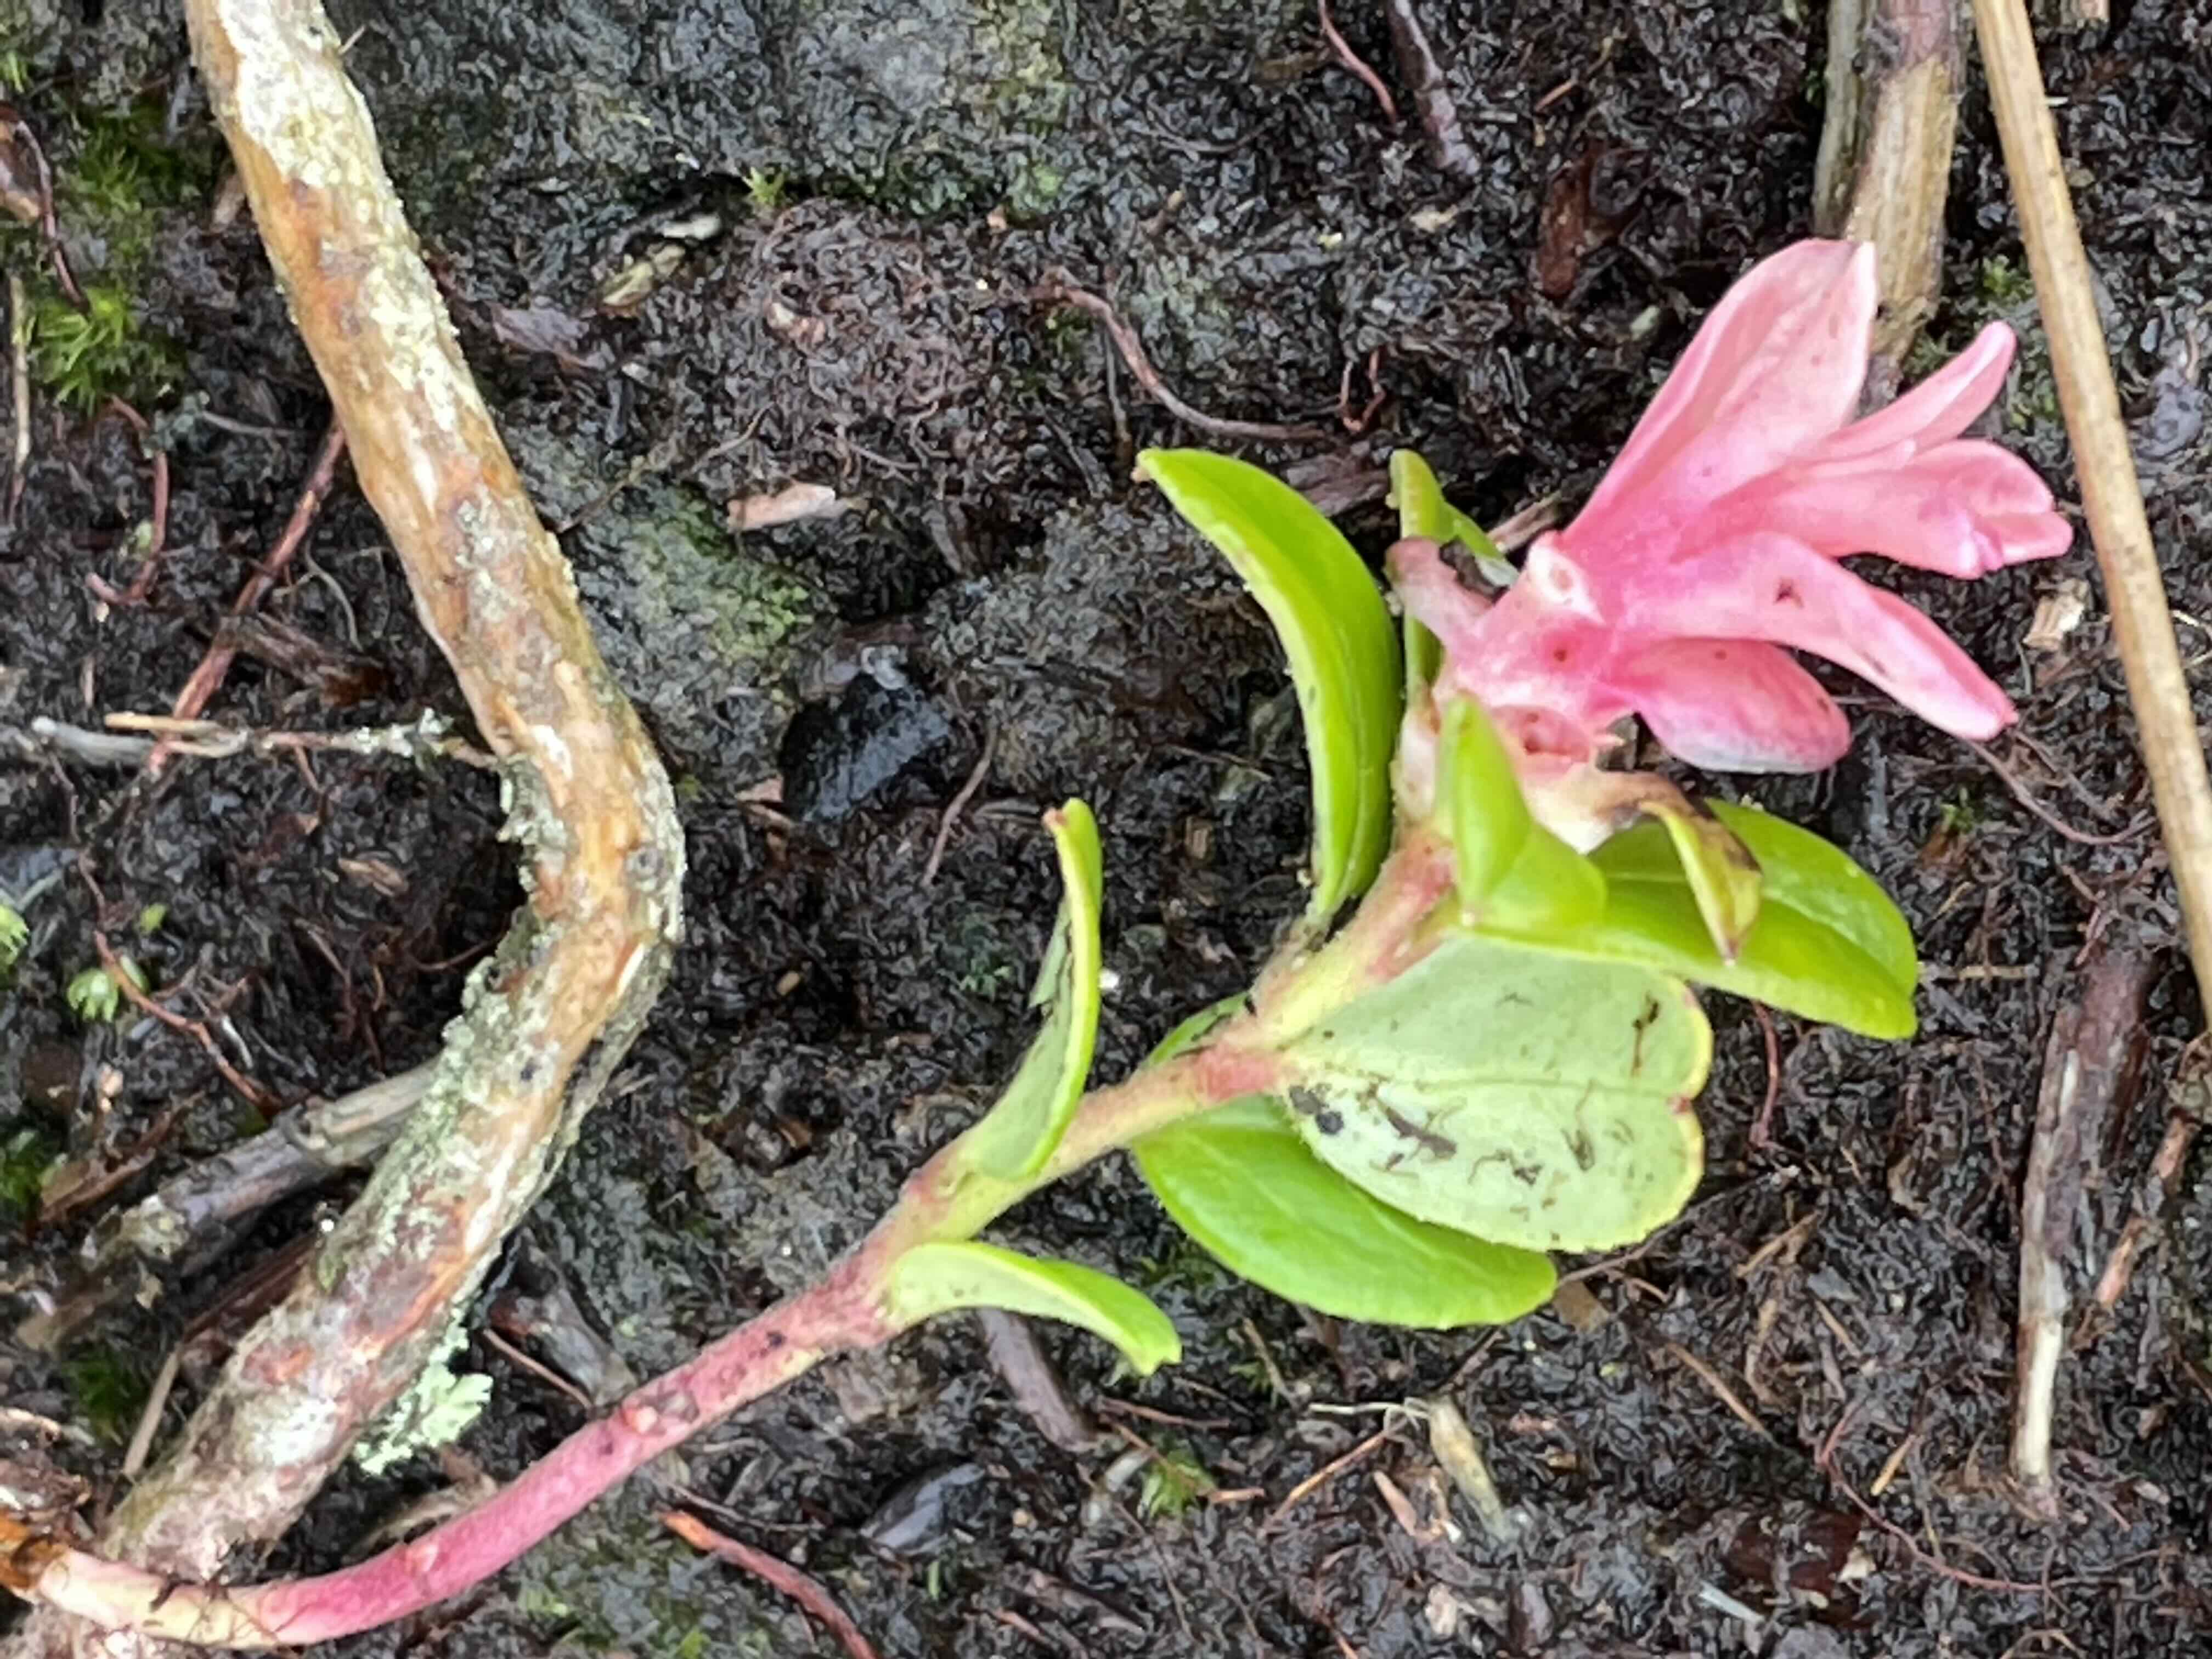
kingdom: Fungi
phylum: Basidiomycota
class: Exobasidiomycetes
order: Exobasidiales
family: Exobasidiaceae
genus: Exobasidium
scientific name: Exobasidium vaccinii
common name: tyttebærblad-bøllesvamp
